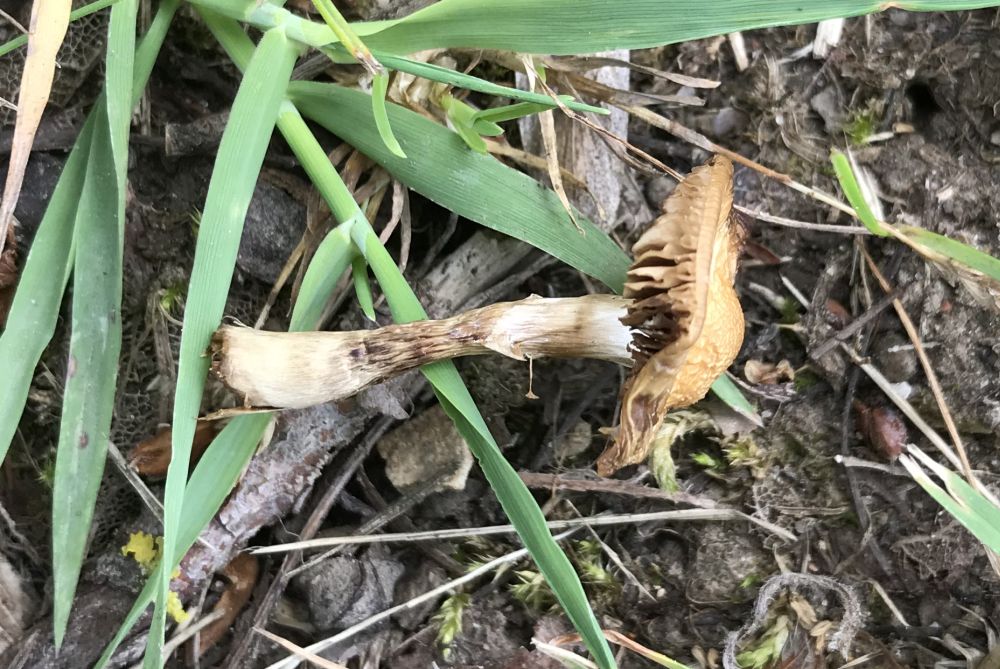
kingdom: Fungi
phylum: Basidiomycota
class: Agaricomycetes
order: Agaricales
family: Strophariaceae
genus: Agrocybe
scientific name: Agrocybe
